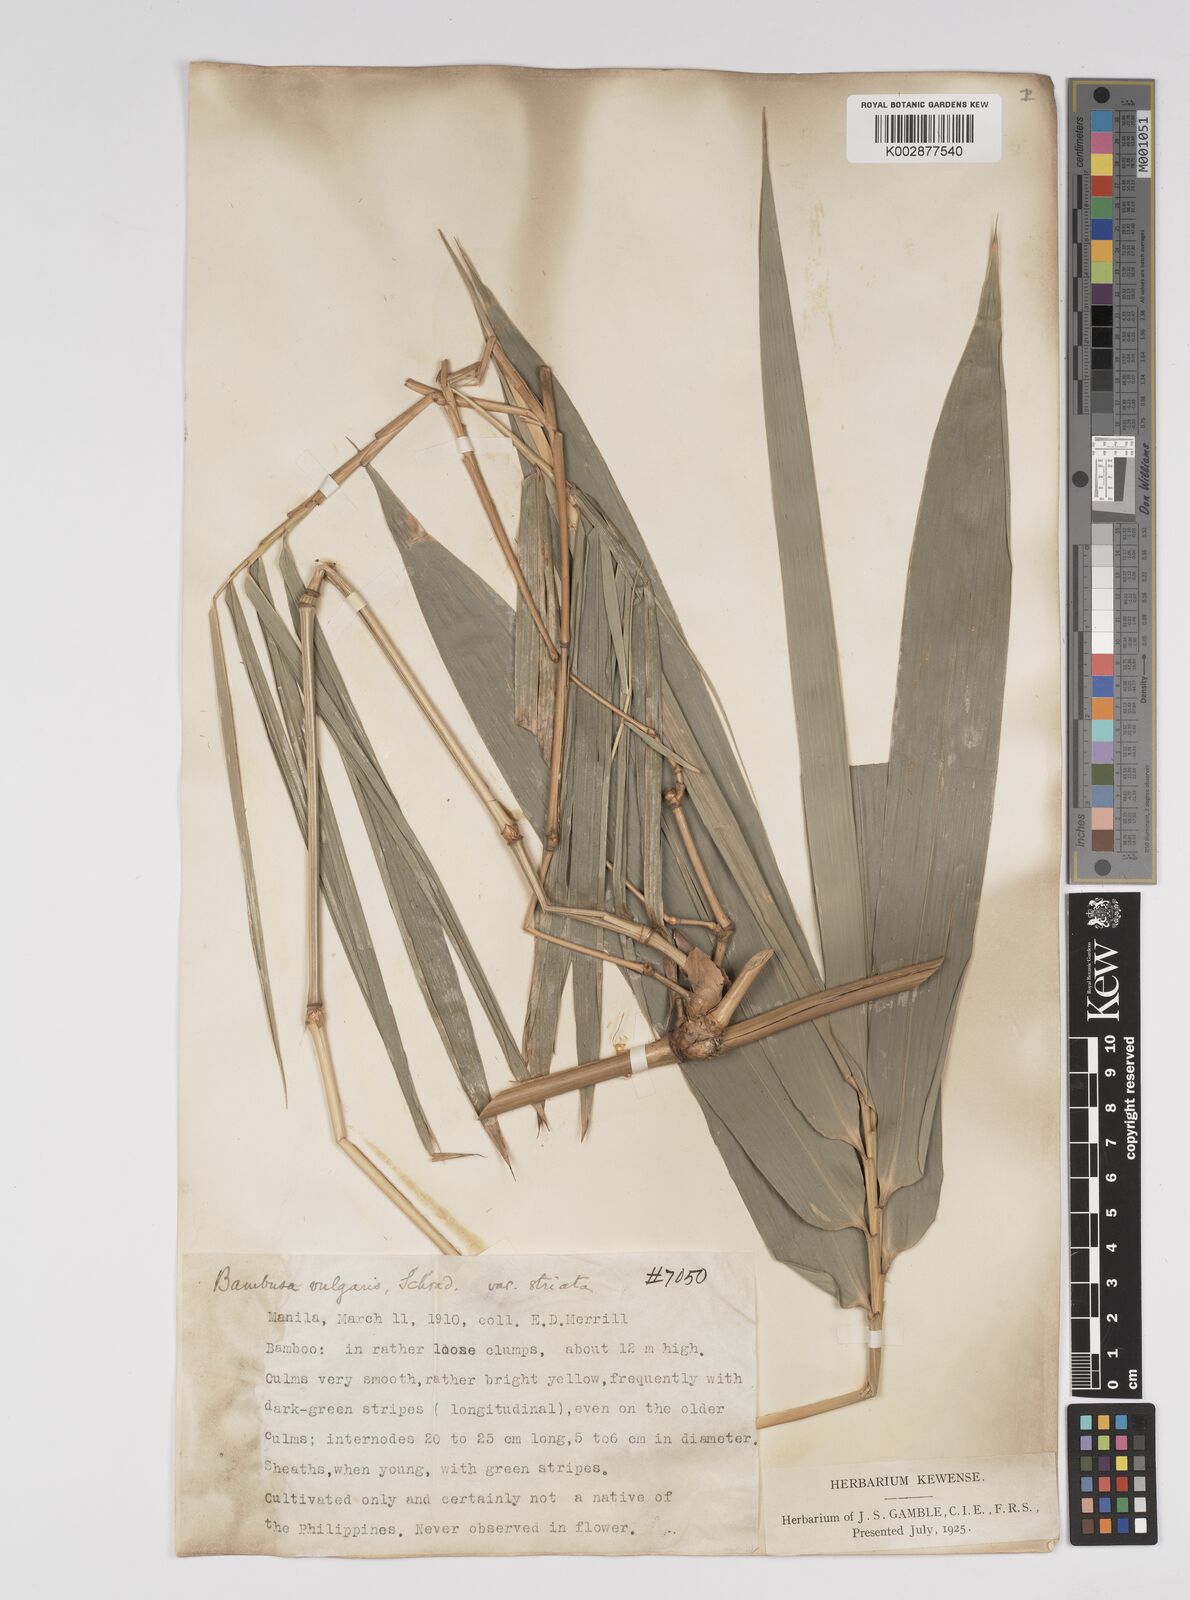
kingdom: Plantae
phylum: Tracheophyta
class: Liliopsida
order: Poales
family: Poaceae
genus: Bambusa
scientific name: Bambusa vulgaris
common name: Common bamboo
